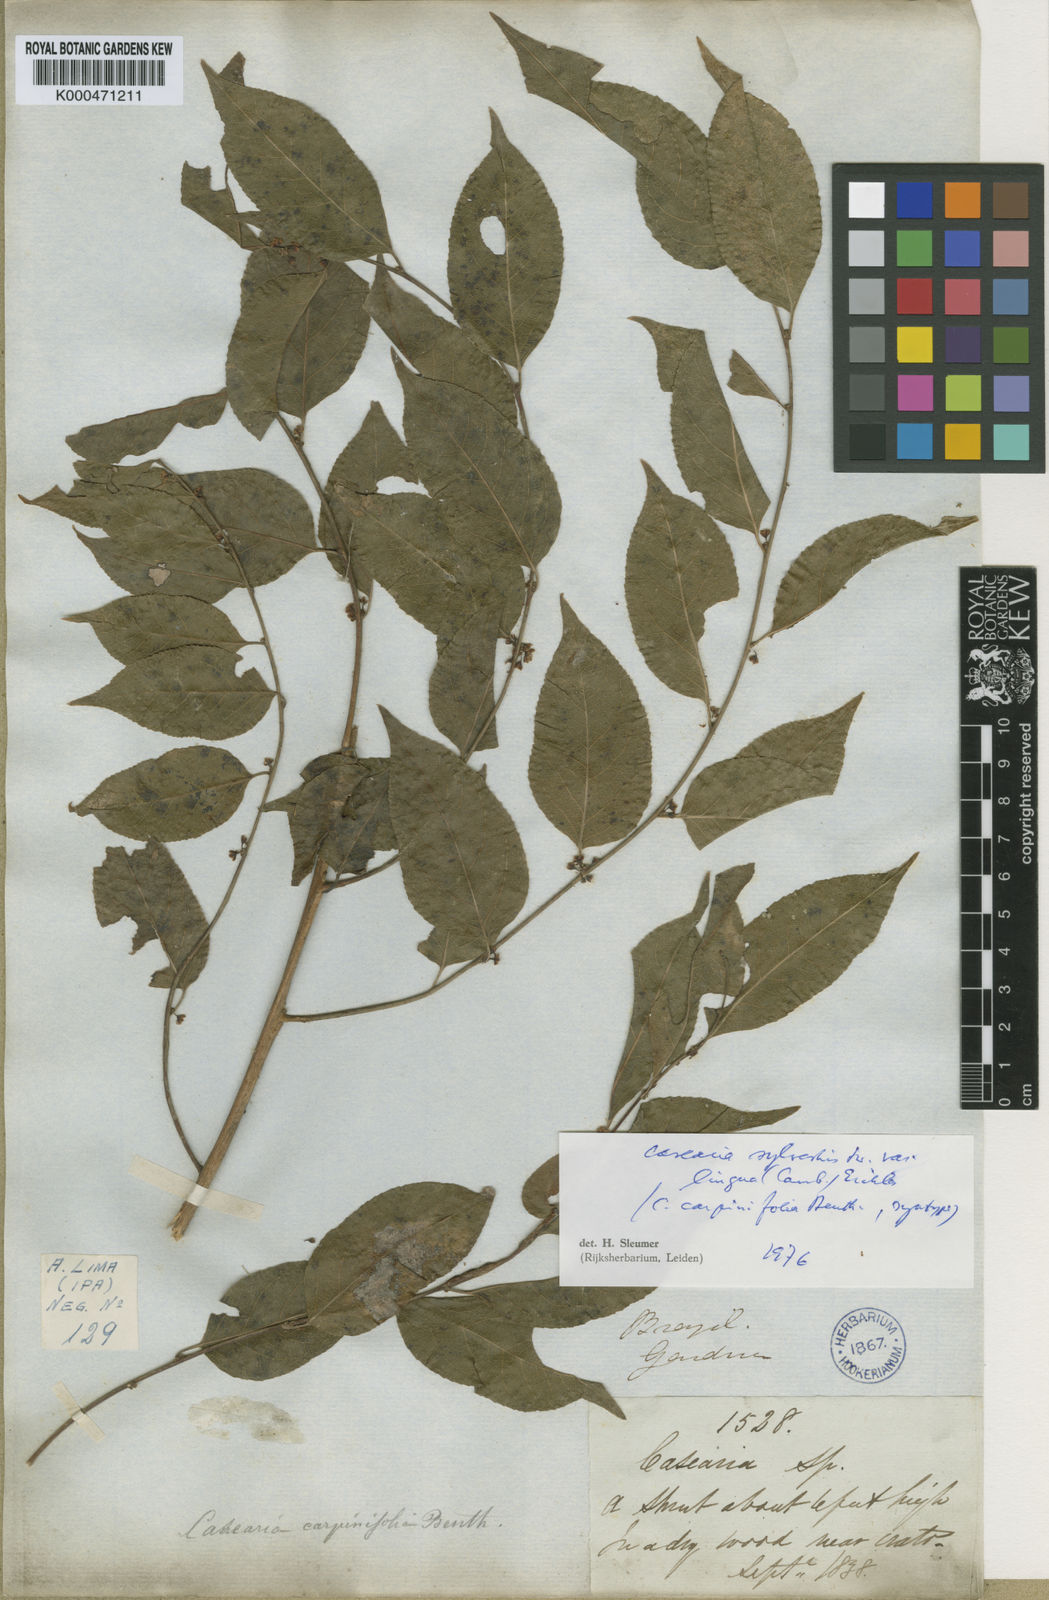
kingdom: Plantae
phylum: Tracheophyta
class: Magnoliopsida
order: Malpighiales
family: Salicaceae
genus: Casearia
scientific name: Casearia sylvestris
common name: Wild sage
